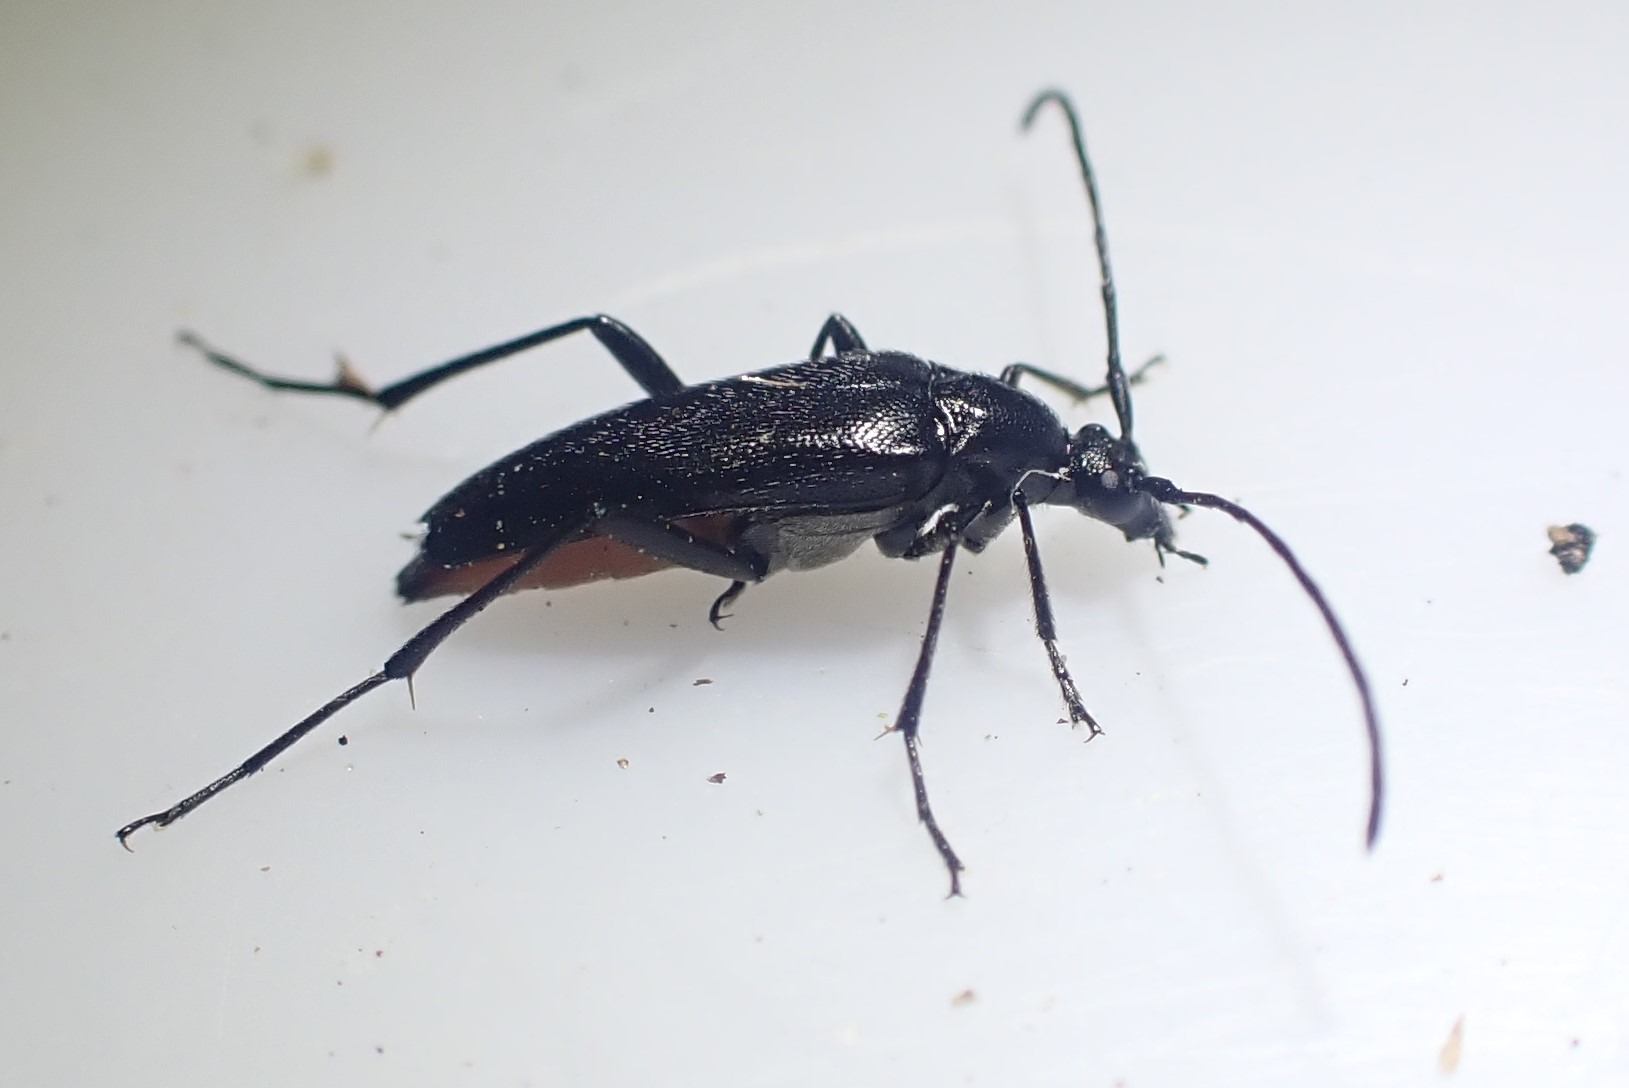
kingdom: Animalia
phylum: Arthropoda
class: Insecta
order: Coleoptera
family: Cerambycidae
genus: Stenurella
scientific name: Stenurella nigra
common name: Rødbuget spidsbuk
